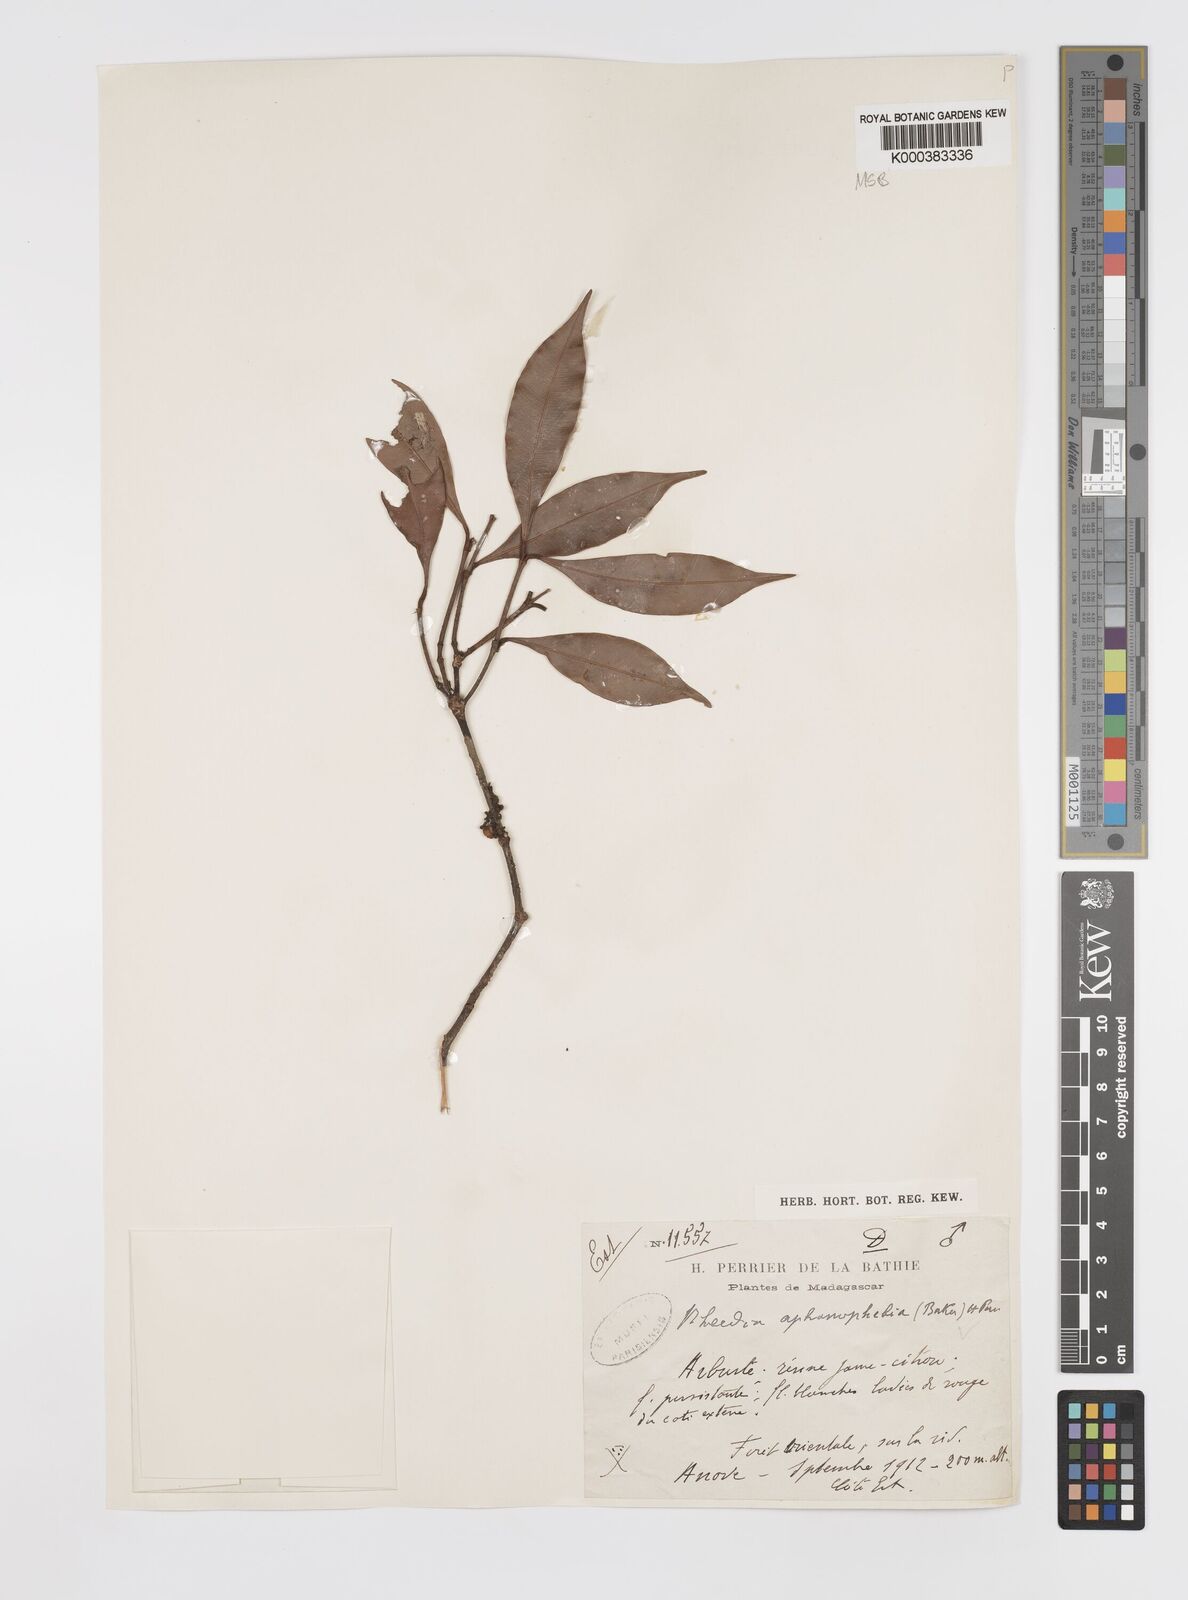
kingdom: Plantae
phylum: Tracheophyta
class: Magnoliopsida
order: Malpighiales
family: Clusiaceae
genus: Garcinia
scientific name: Garcinia
